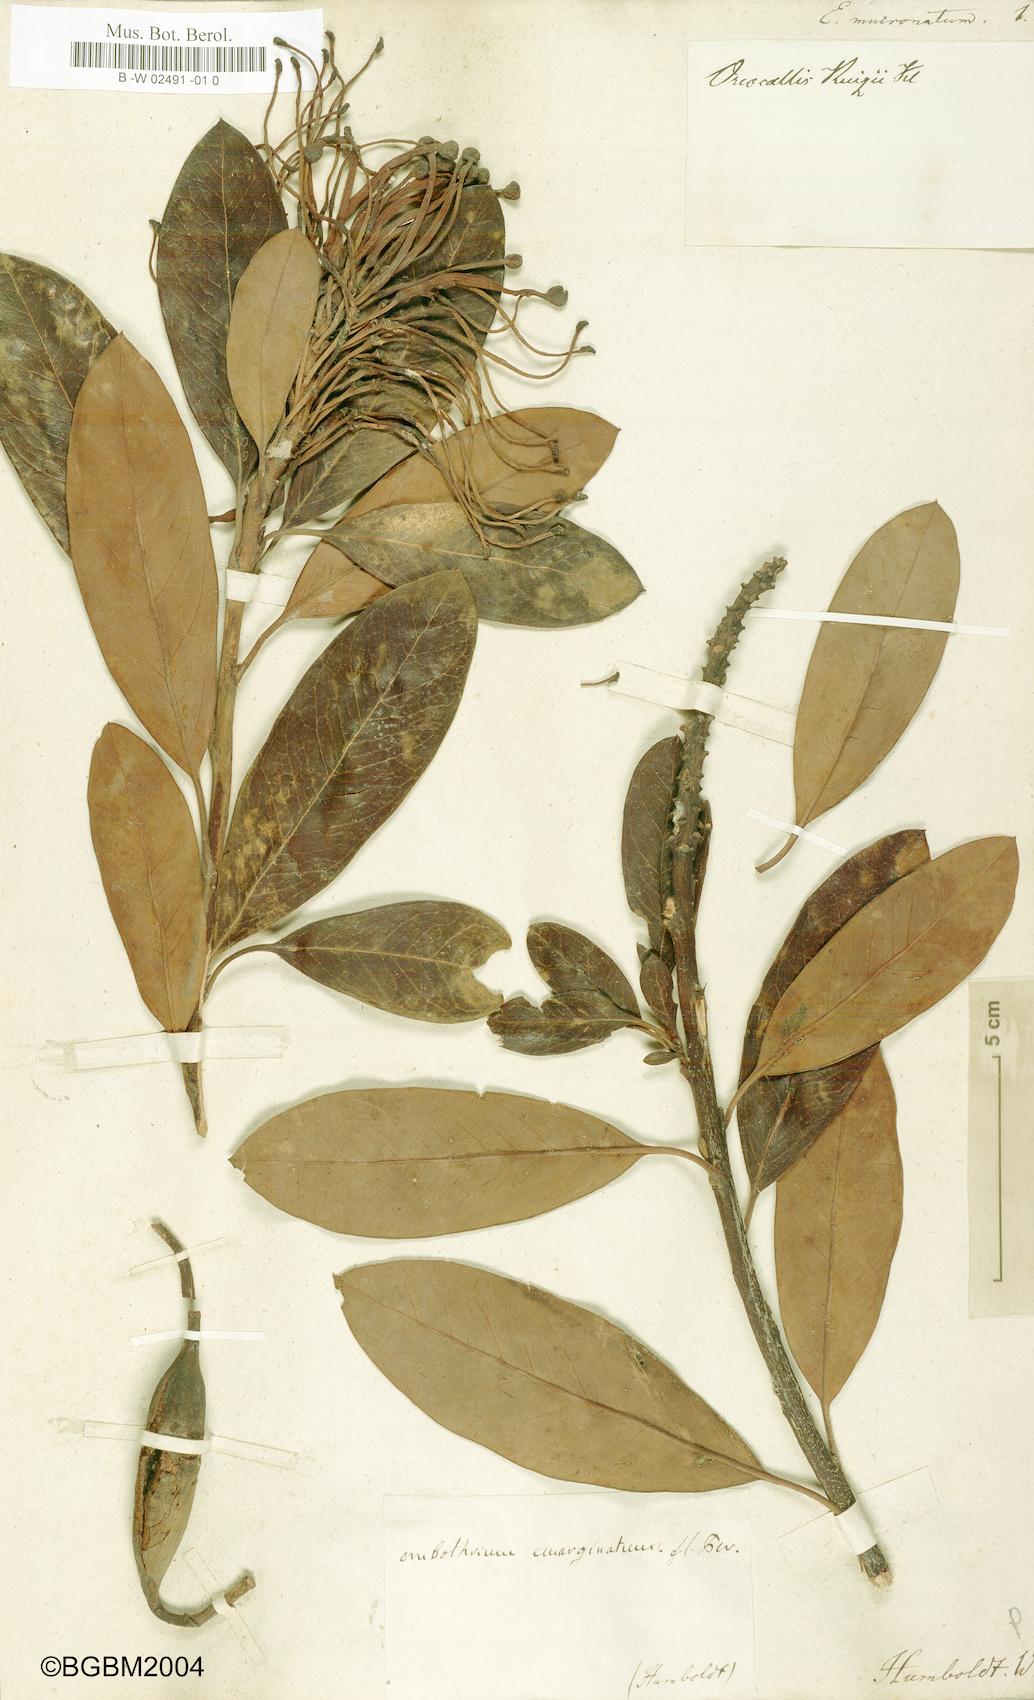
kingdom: Plantae
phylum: Tracheophyta
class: Magnoliopsida
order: Proteales
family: Proteaceae
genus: Oreocallis
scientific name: Oreocallis grandiflora
